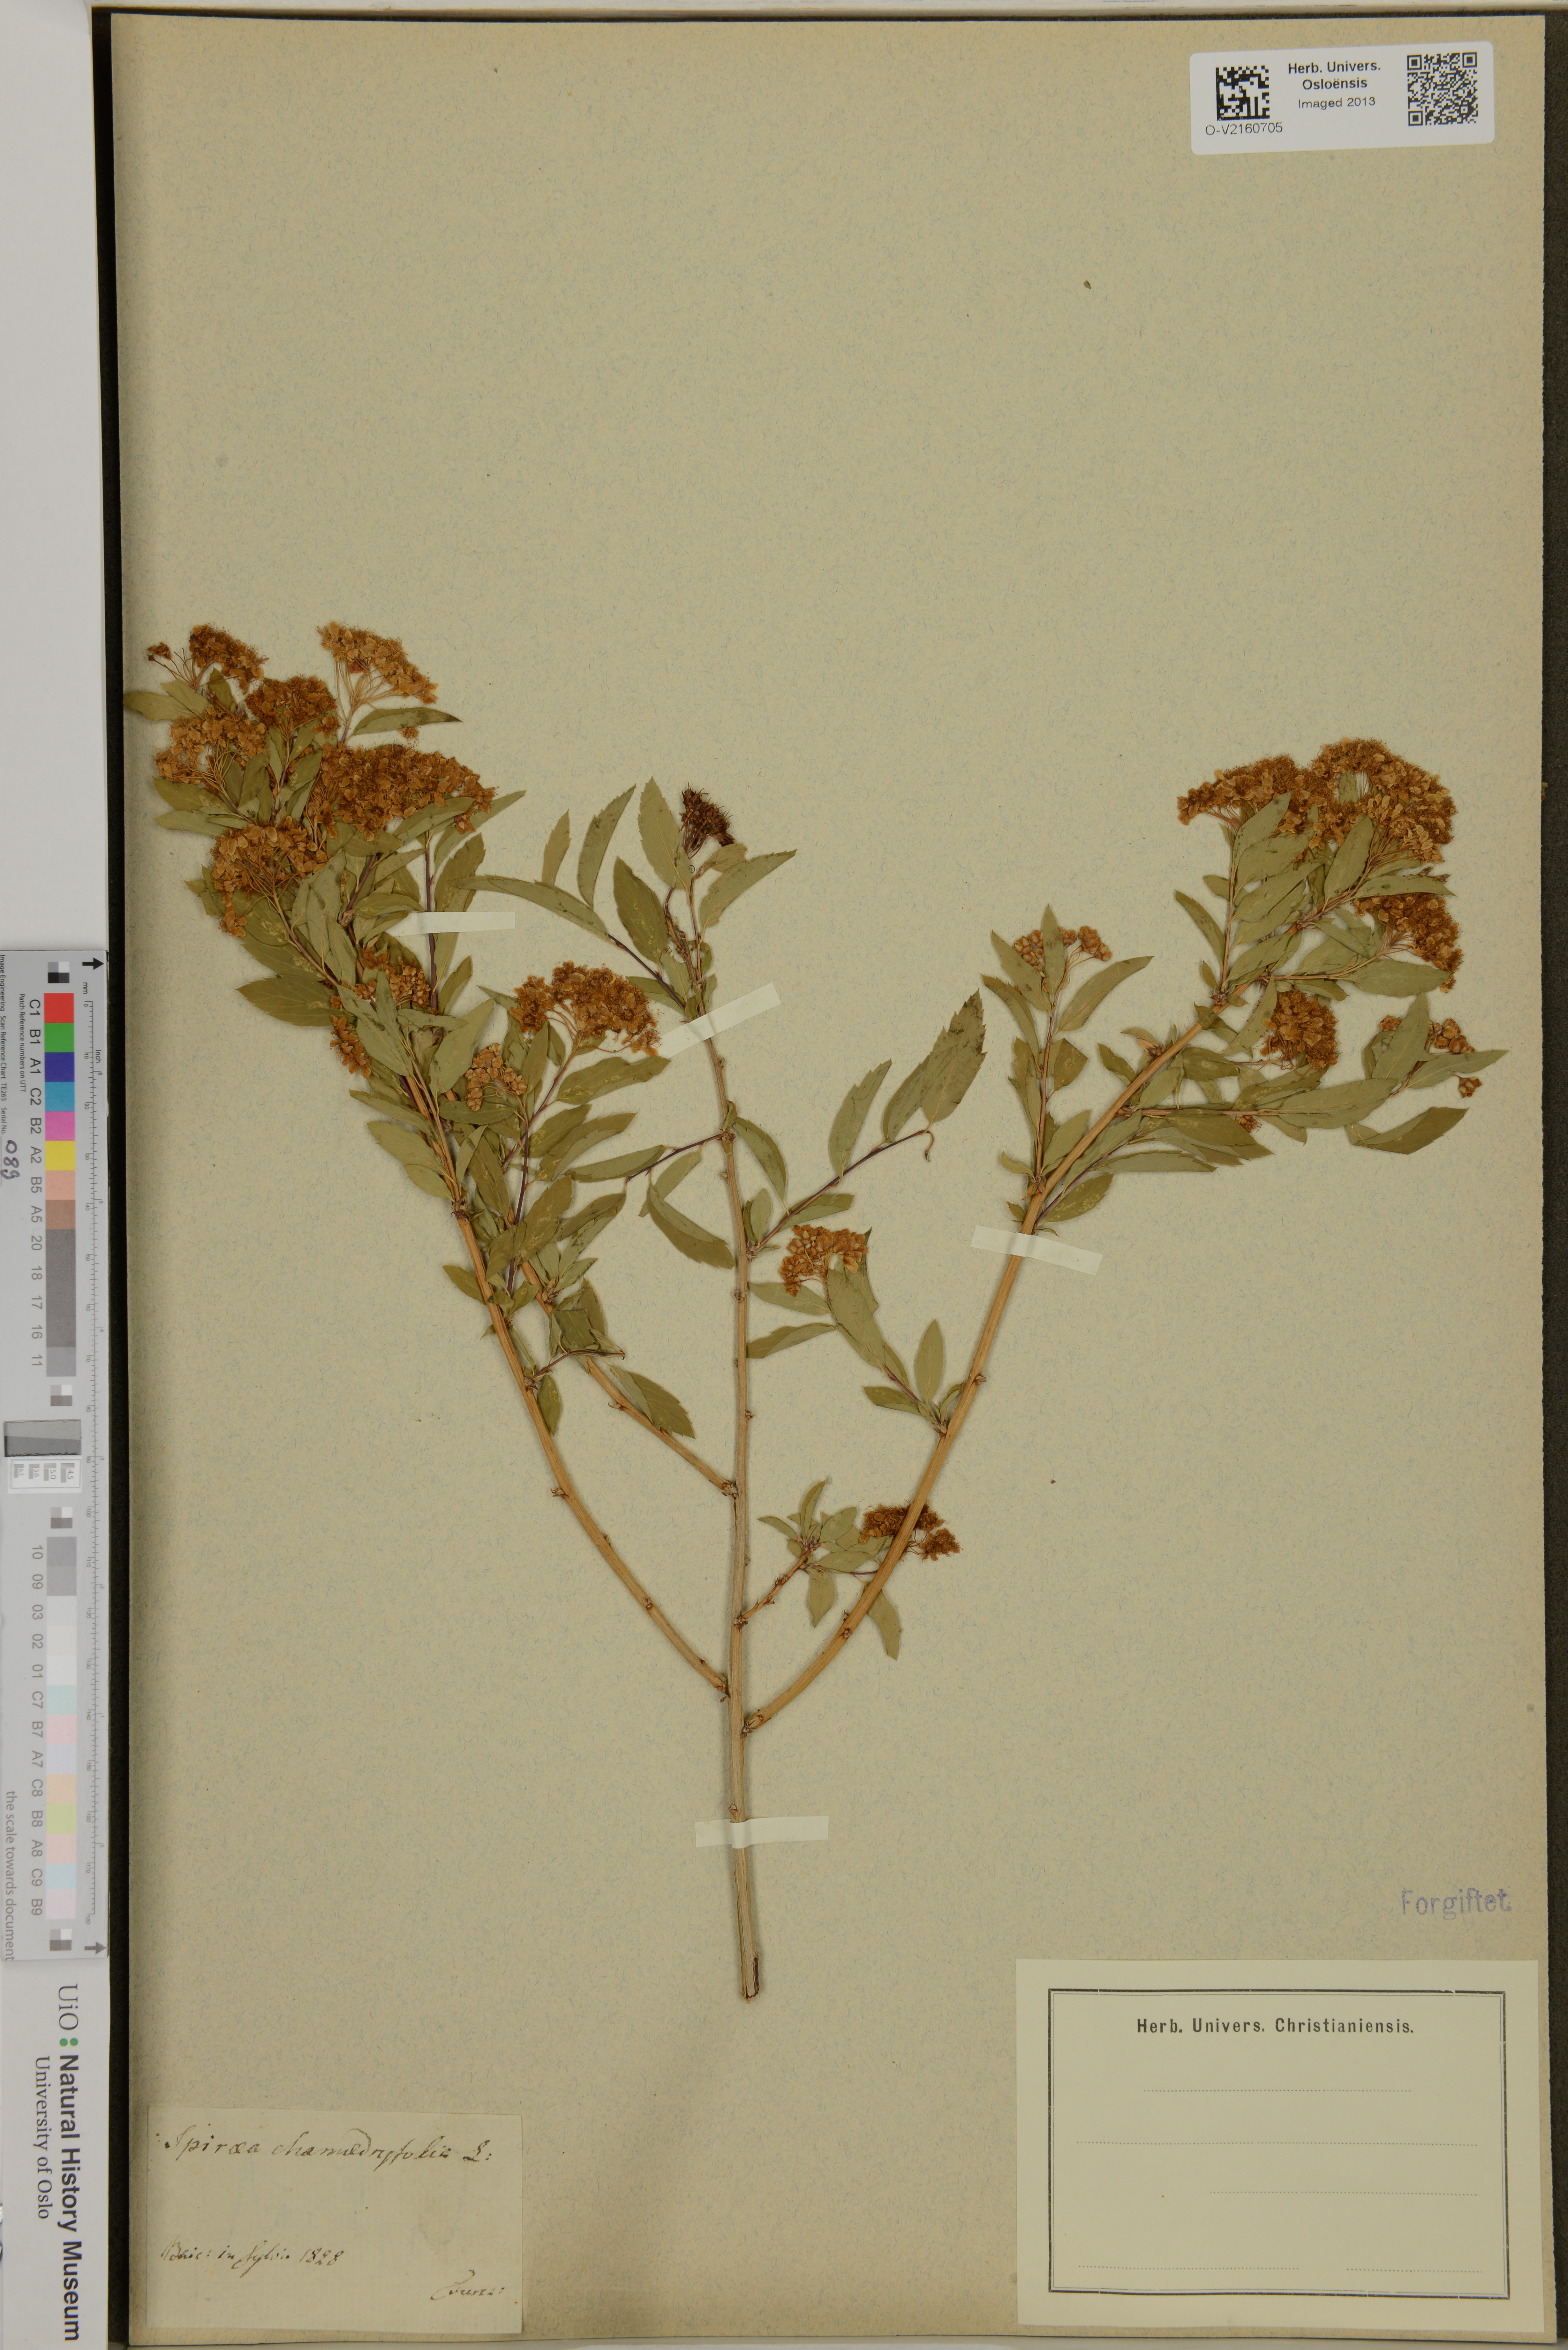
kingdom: Plantae
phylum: Tracheophyta
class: Magnoliopsida
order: Rosales
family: Rosaceae
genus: Spiraea
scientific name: Spiraea chamaedryfolia
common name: Elm-leaved spiraea
